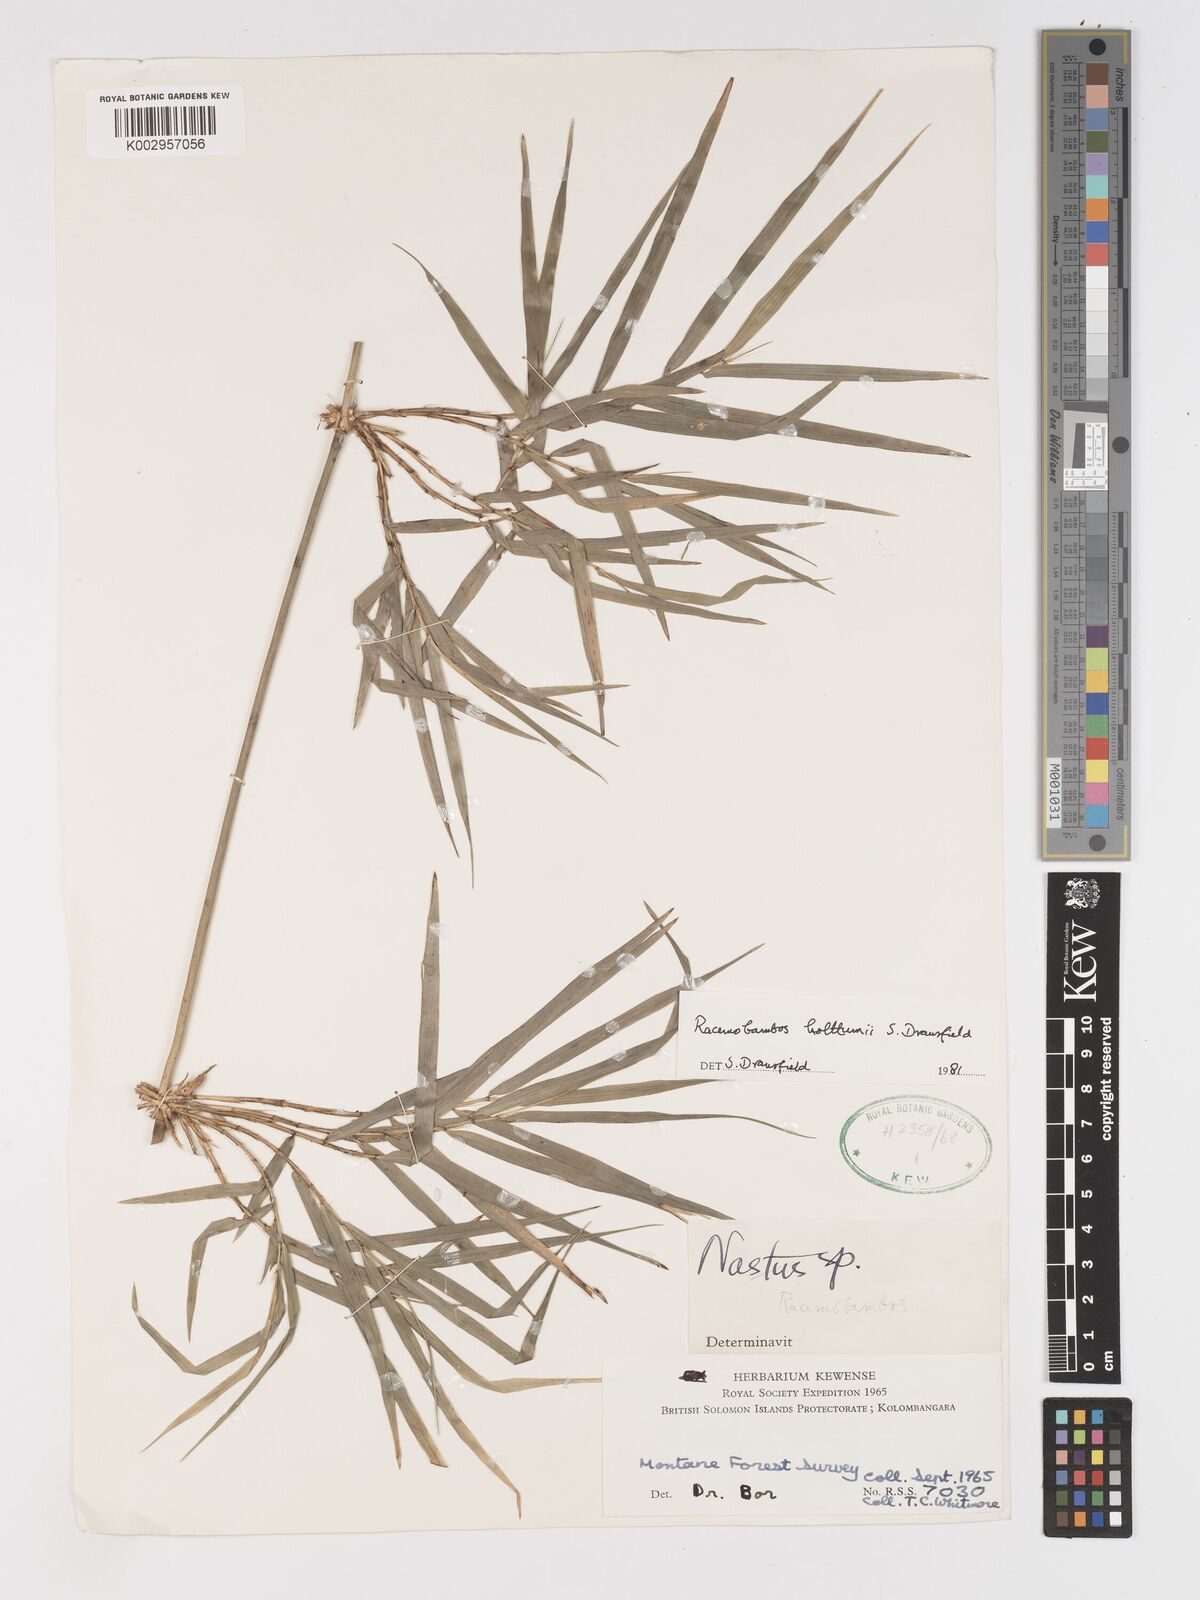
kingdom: Plantae
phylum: Tracheophyta
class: Liliopsida
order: Poales
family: Poaceae
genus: Racemobambos
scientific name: Racemobambos
